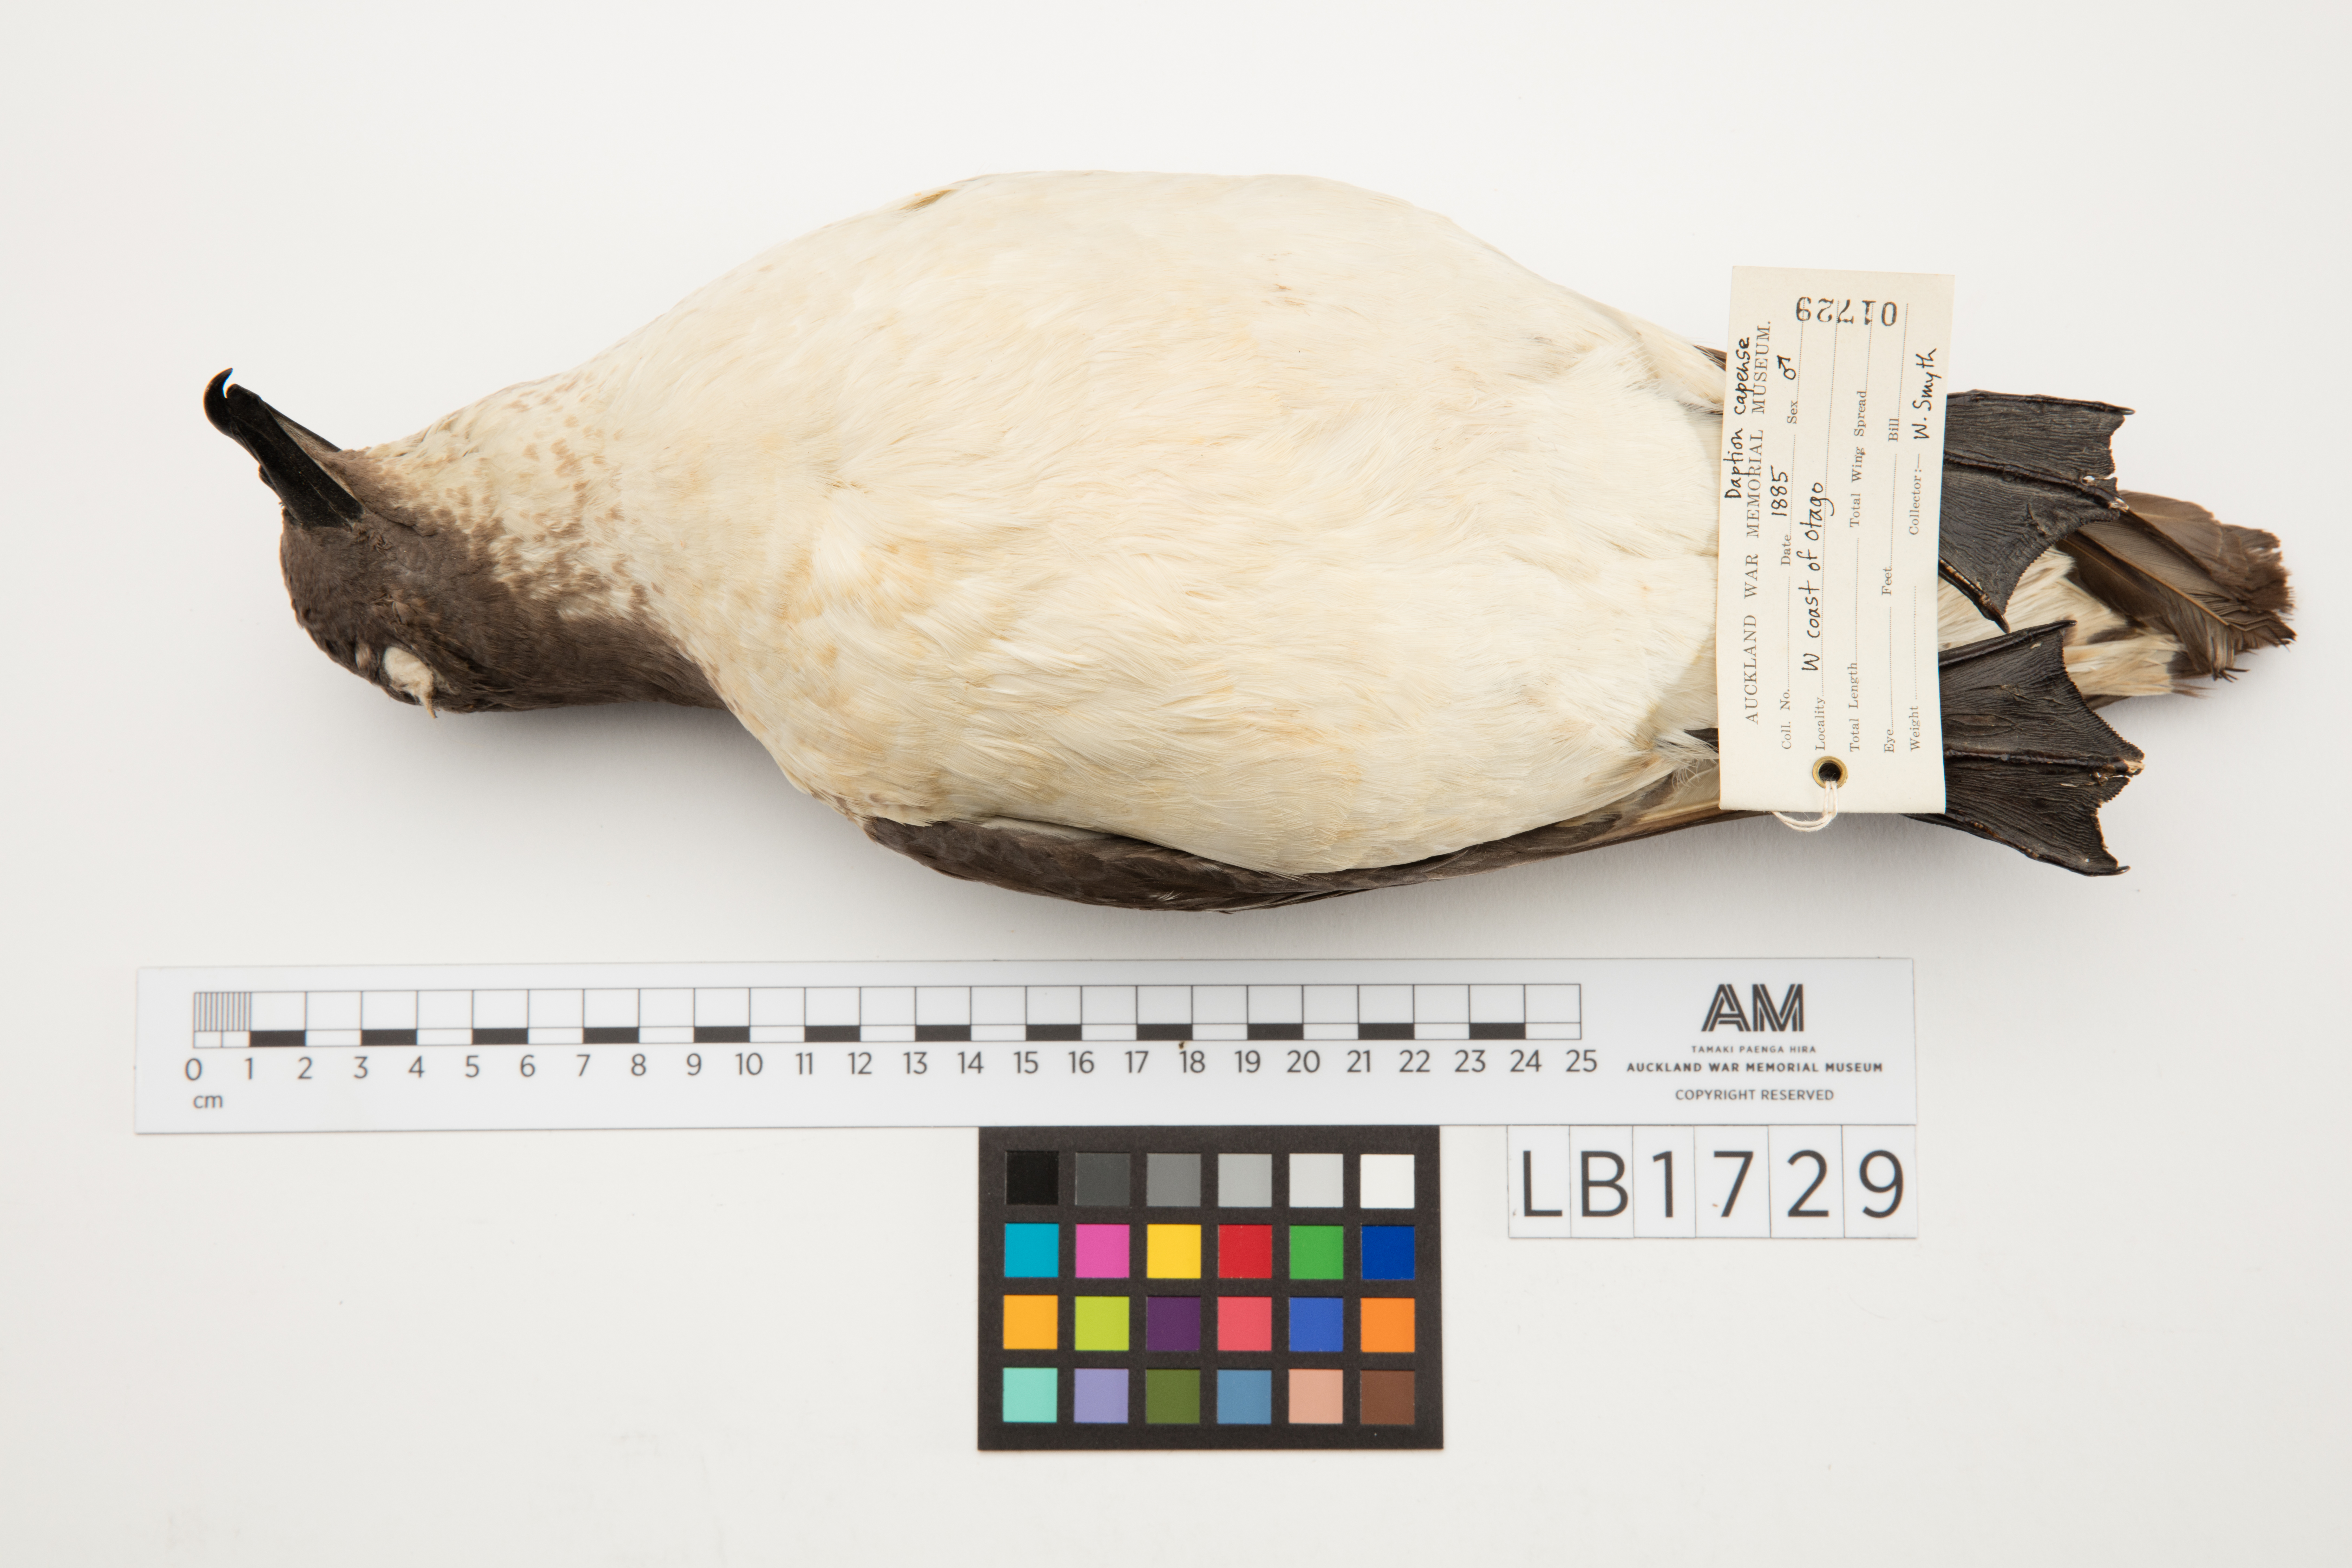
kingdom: Animalia
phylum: Chordata
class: Aves
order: Procellariiformes
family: Procellariidae
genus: Daption
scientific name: Daption capense
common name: Cape petrel
